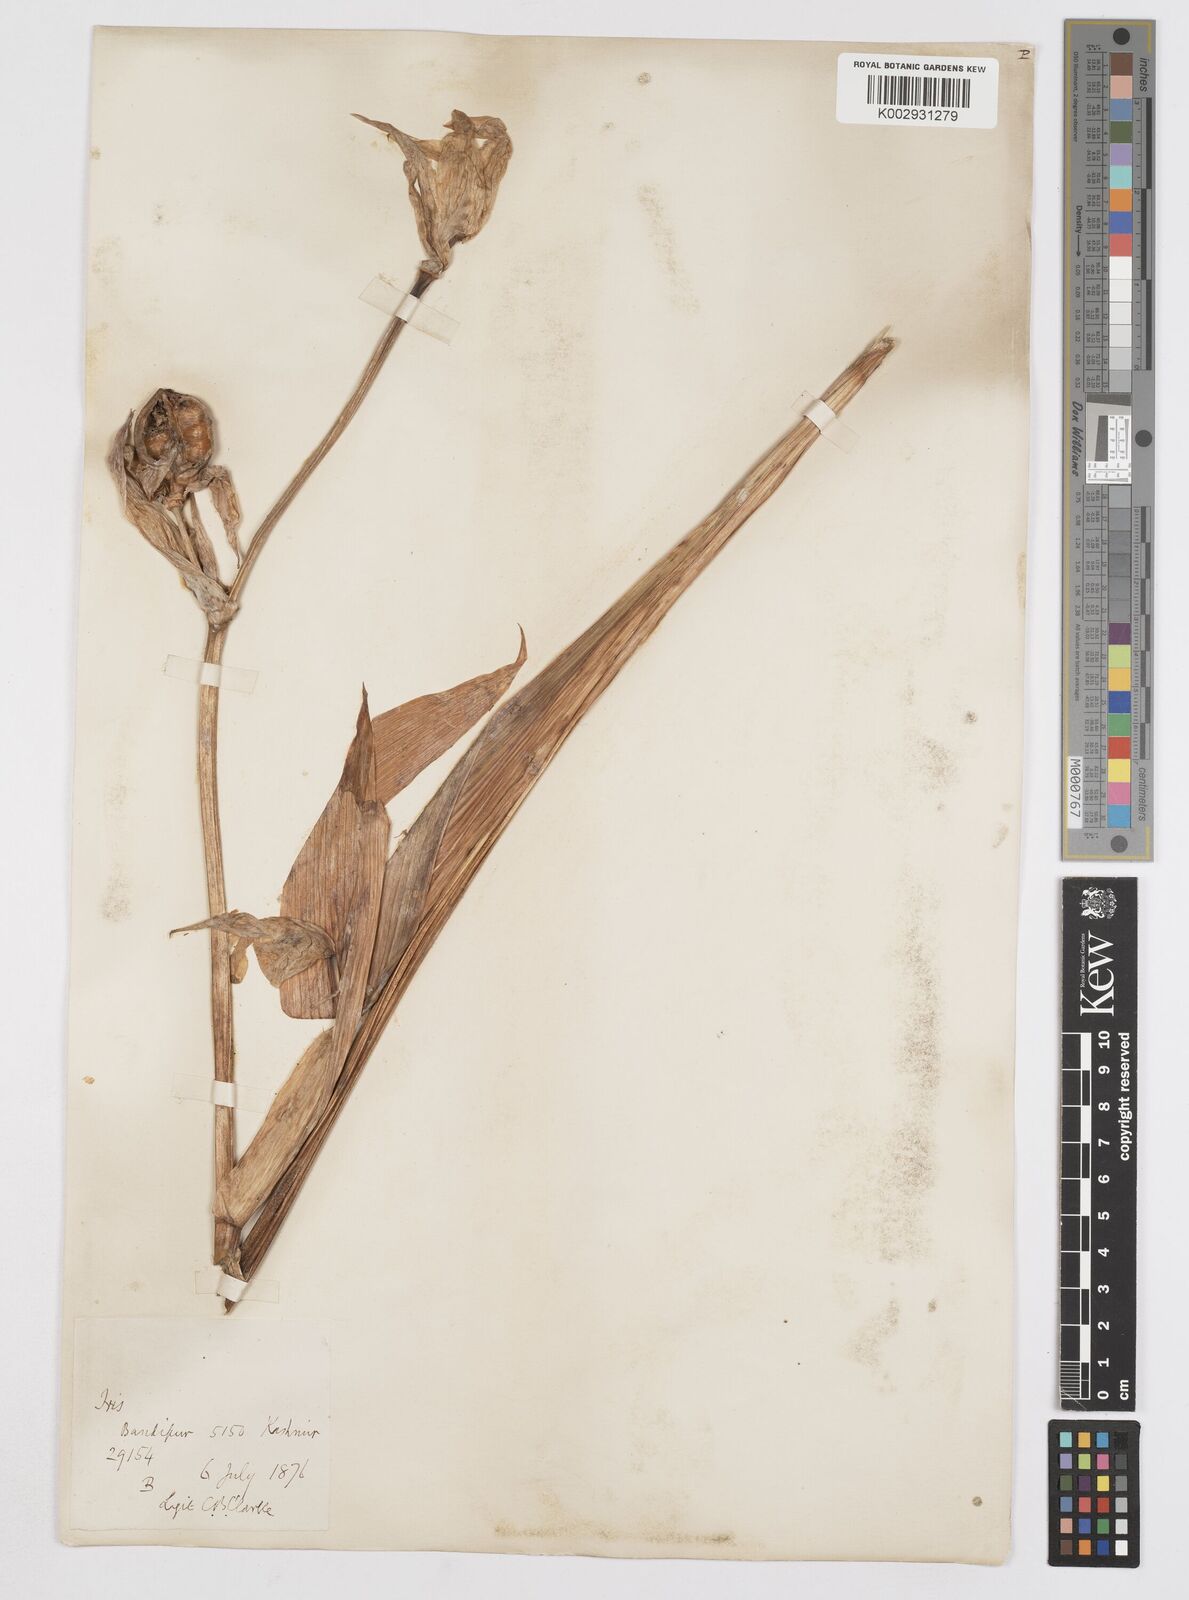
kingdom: Plantae
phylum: Tracheophyta
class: Liliopsida
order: Asparagales
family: Iridaceae
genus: Iris
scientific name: Iris kashmiriana
